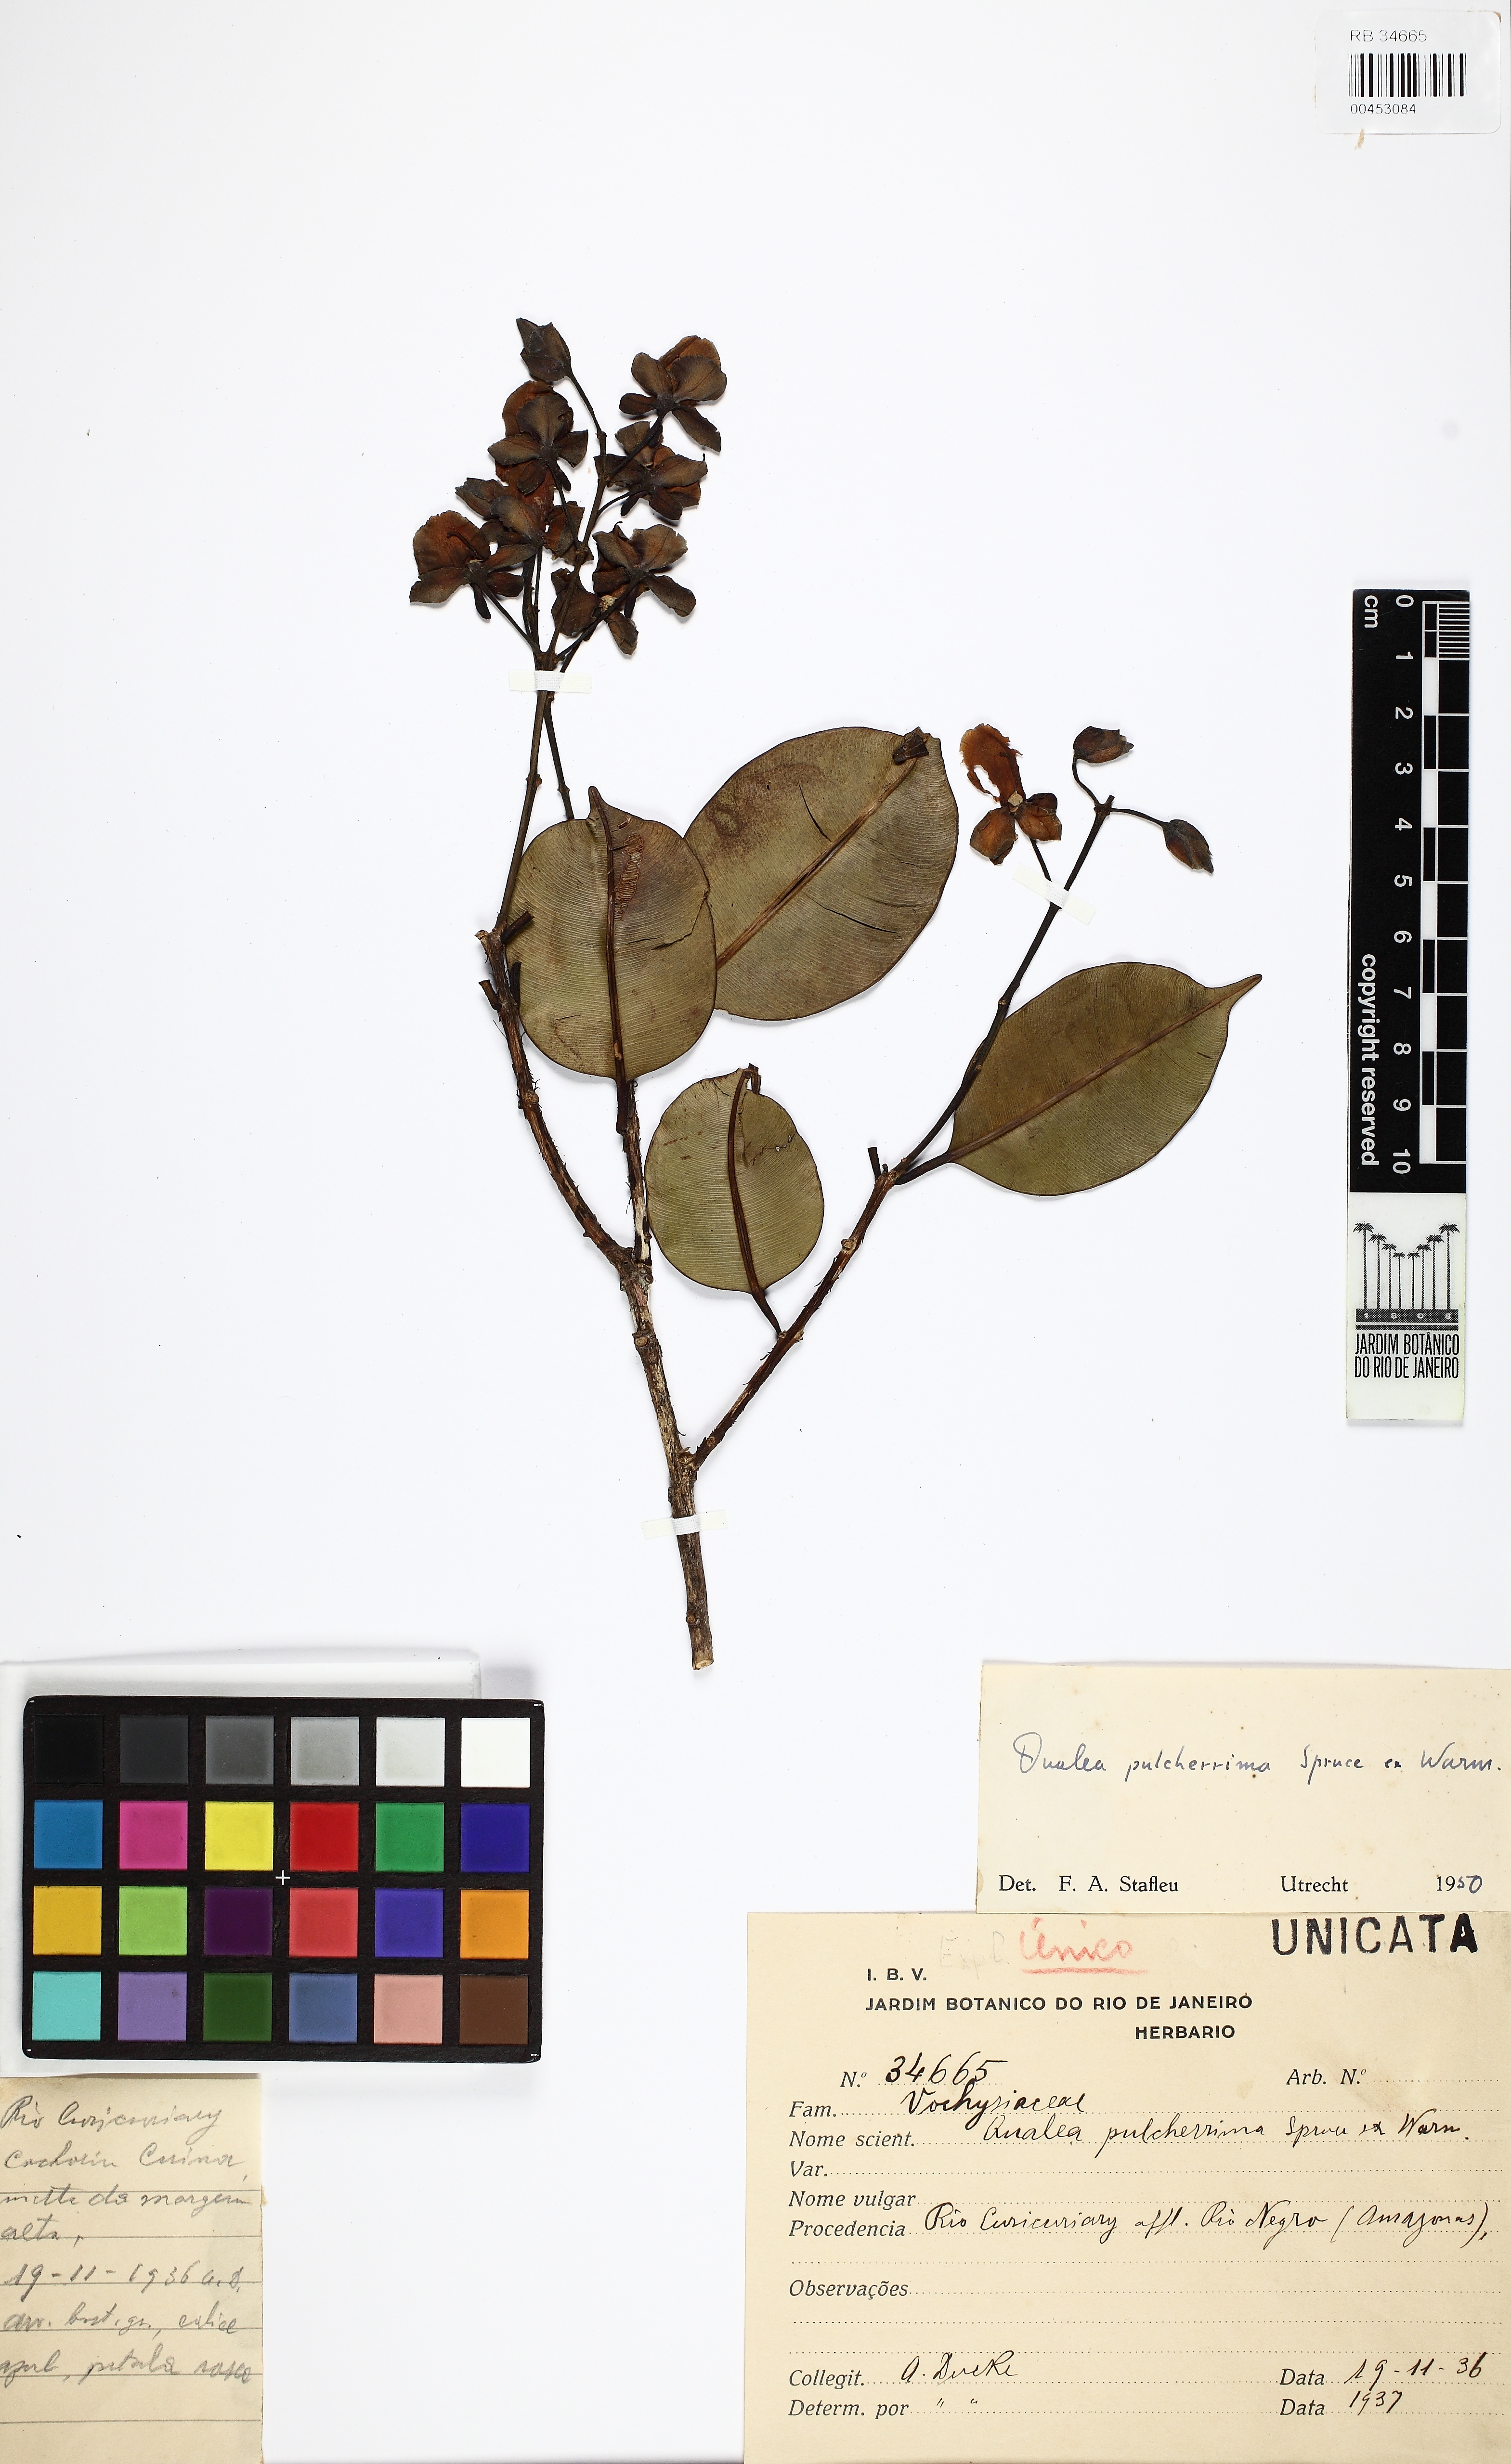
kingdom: Plantae
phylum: Tracheophyta
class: Magnoliopsida
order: Myrtales
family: Vochysiaceae
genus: Qualea
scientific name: Qualea pulcherrima
